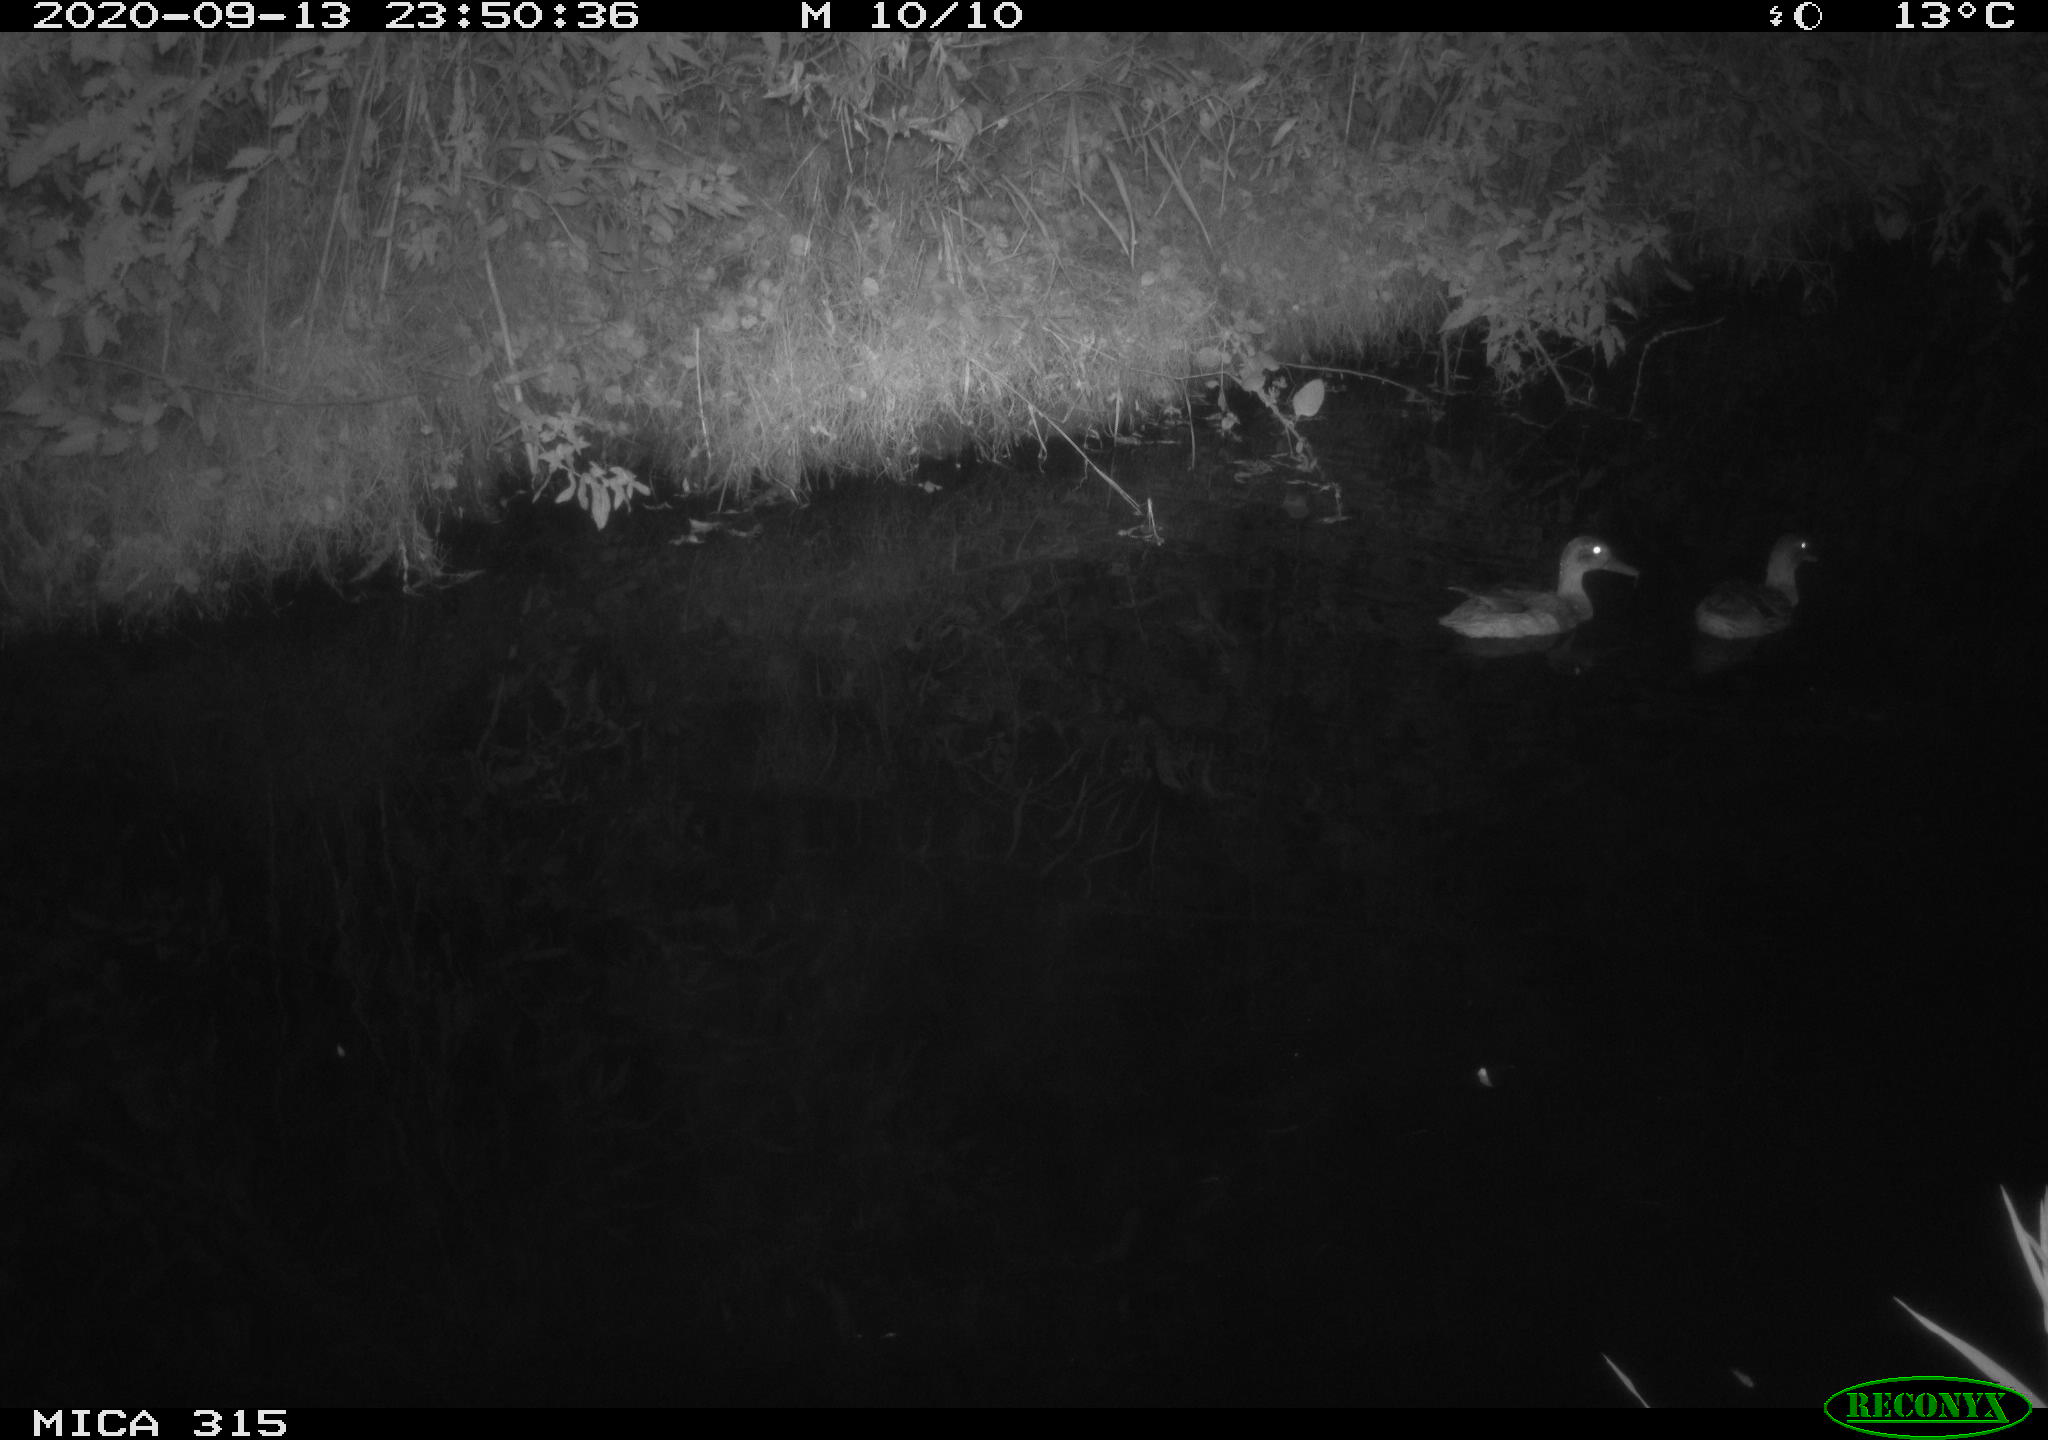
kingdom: Animalia
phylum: Chordata
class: Aves
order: Anseriformes
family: Anatidae
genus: Anas
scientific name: Anas platyrhynchos
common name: Mallard
